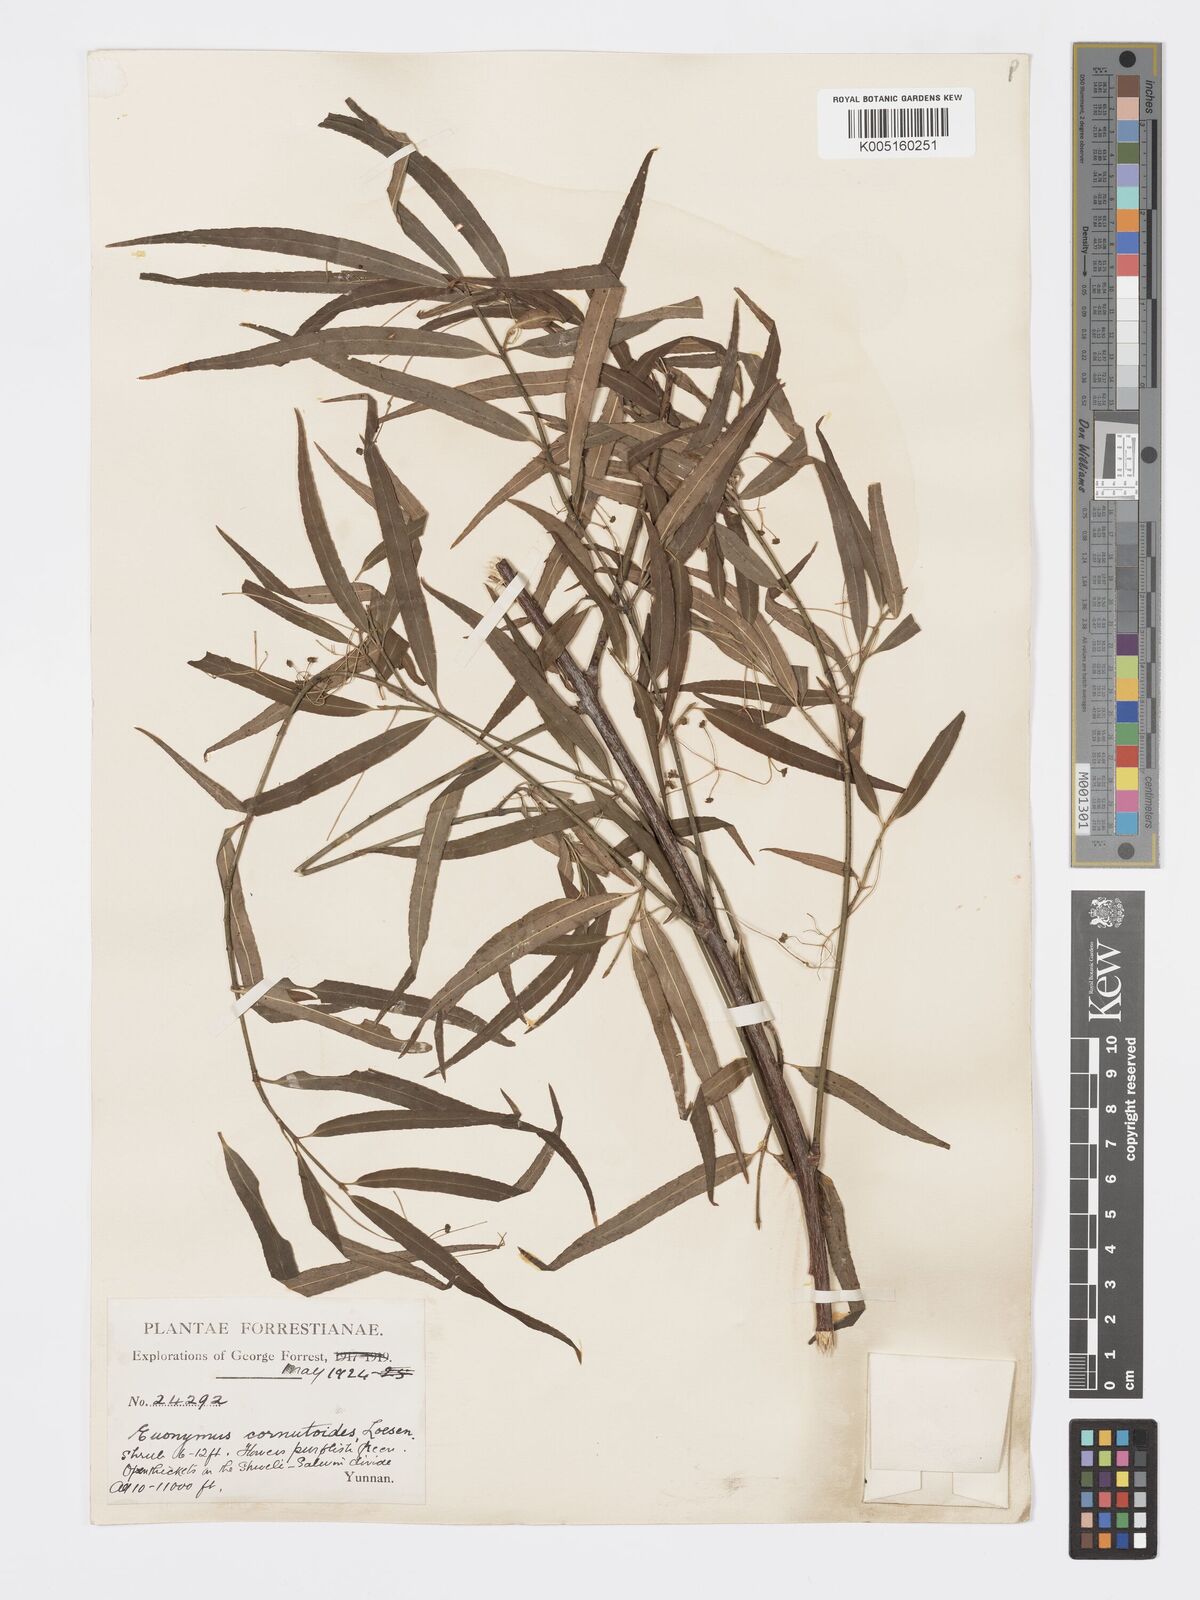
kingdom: Plantae
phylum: Tracheophyta
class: Magnoliopsida
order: Celastrales
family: Celastraceae
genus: Euonymus
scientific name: Euonymus cornutus
